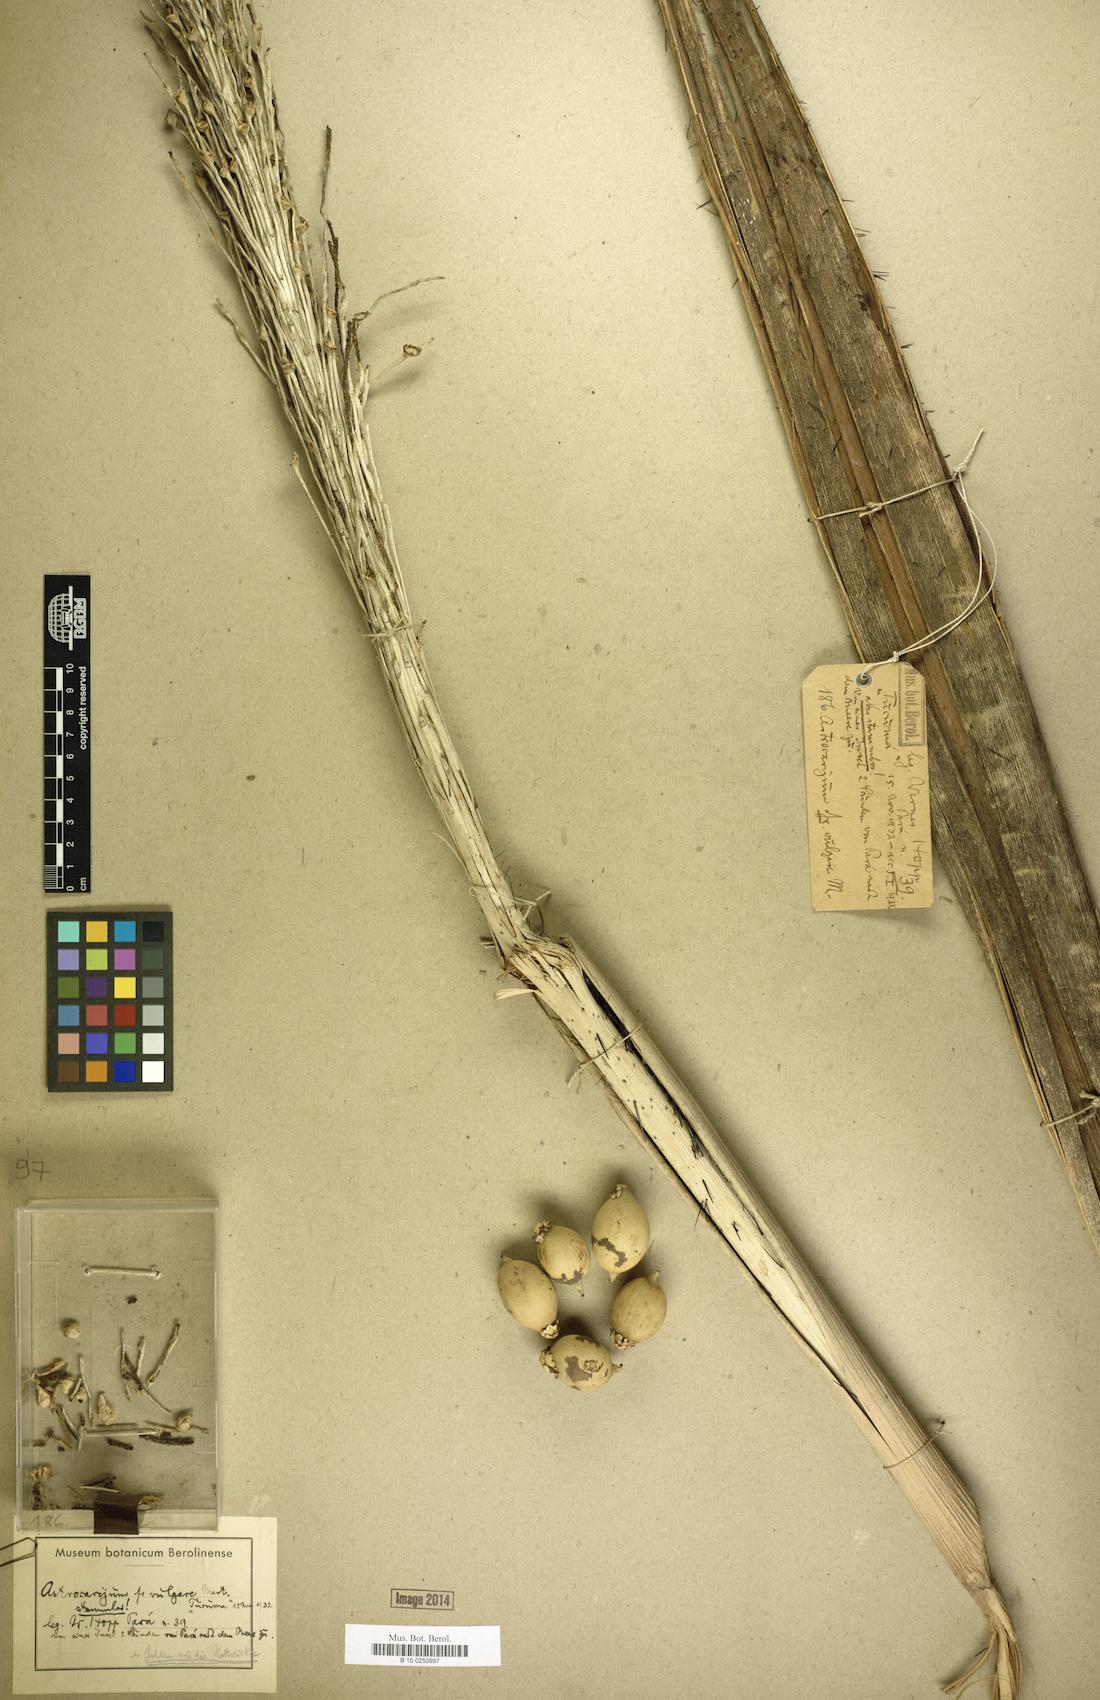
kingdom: Plantae
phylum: Tracheophyta
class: Liliopsida
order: Arecales
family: Arecaceae
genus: Astrocaryum
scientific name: Astrocaryum vulgare
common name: Tucum palm
